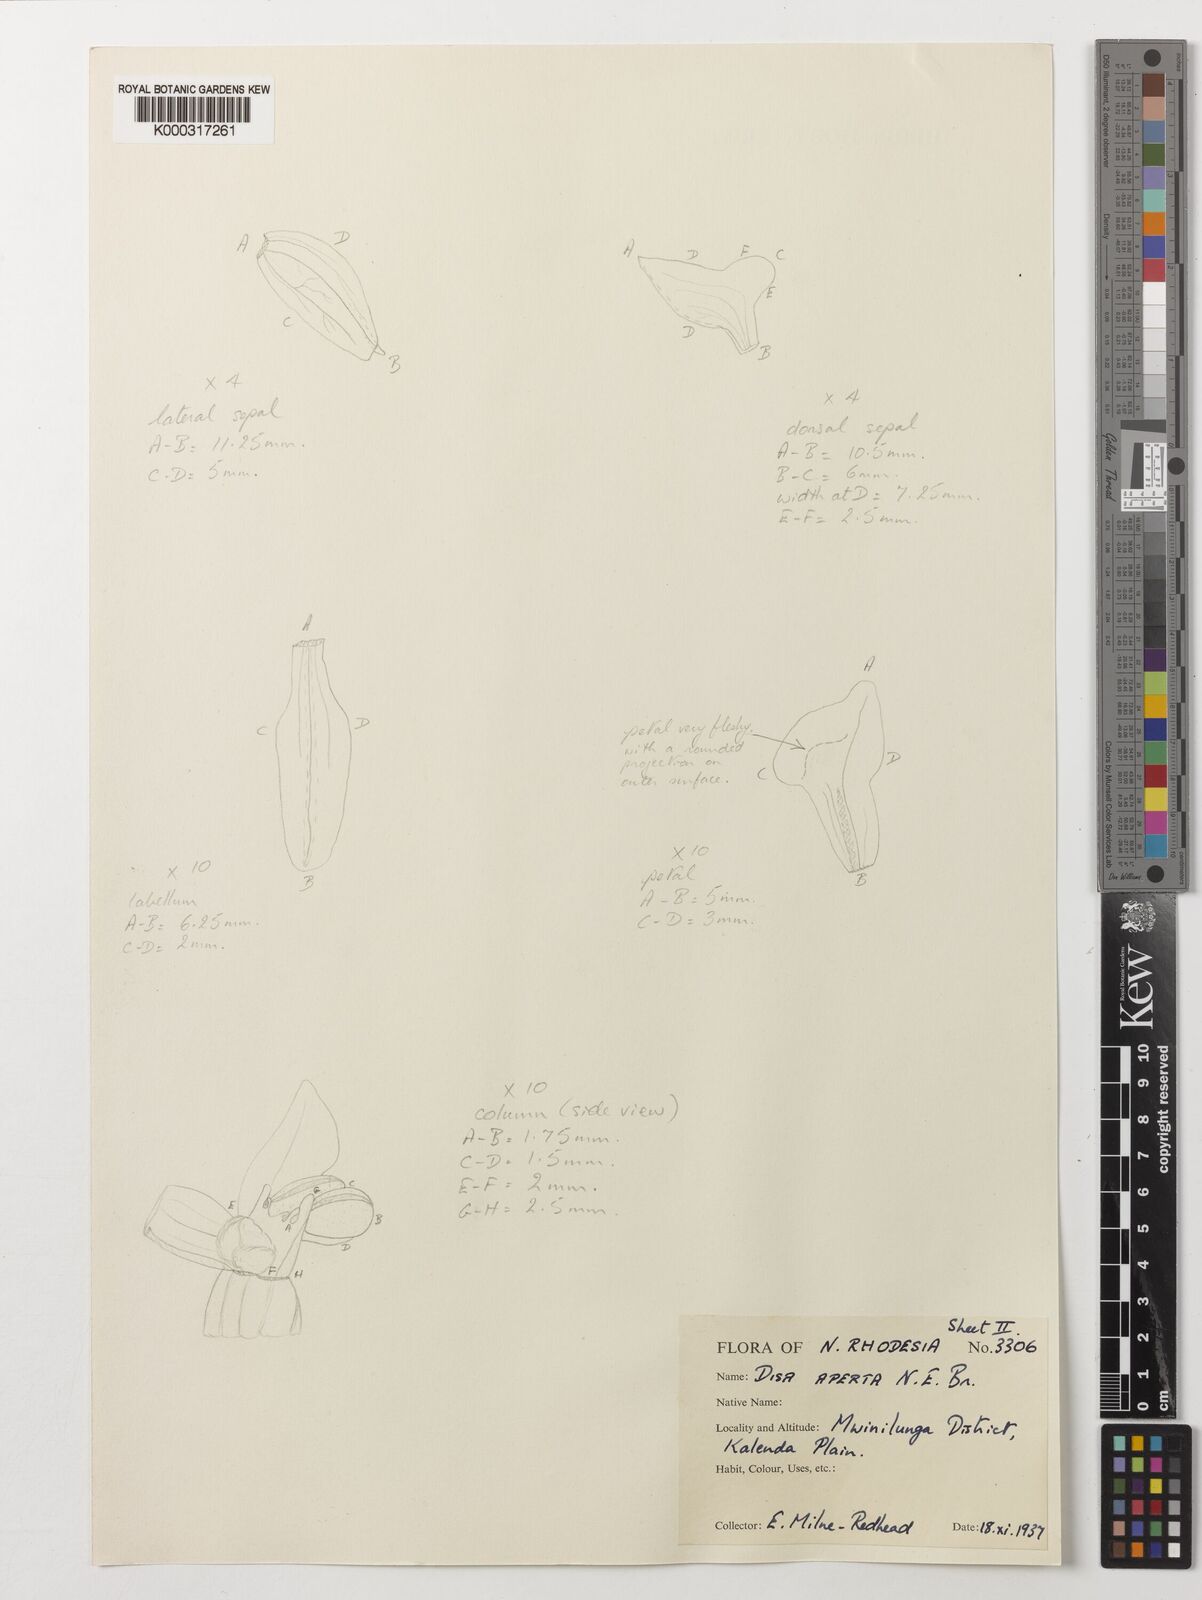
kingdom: Plantae
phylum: Tracheophyta
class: Liliopsida
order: Asparagales
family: Orchidaceae
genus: Disa
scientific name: Disa aperta
